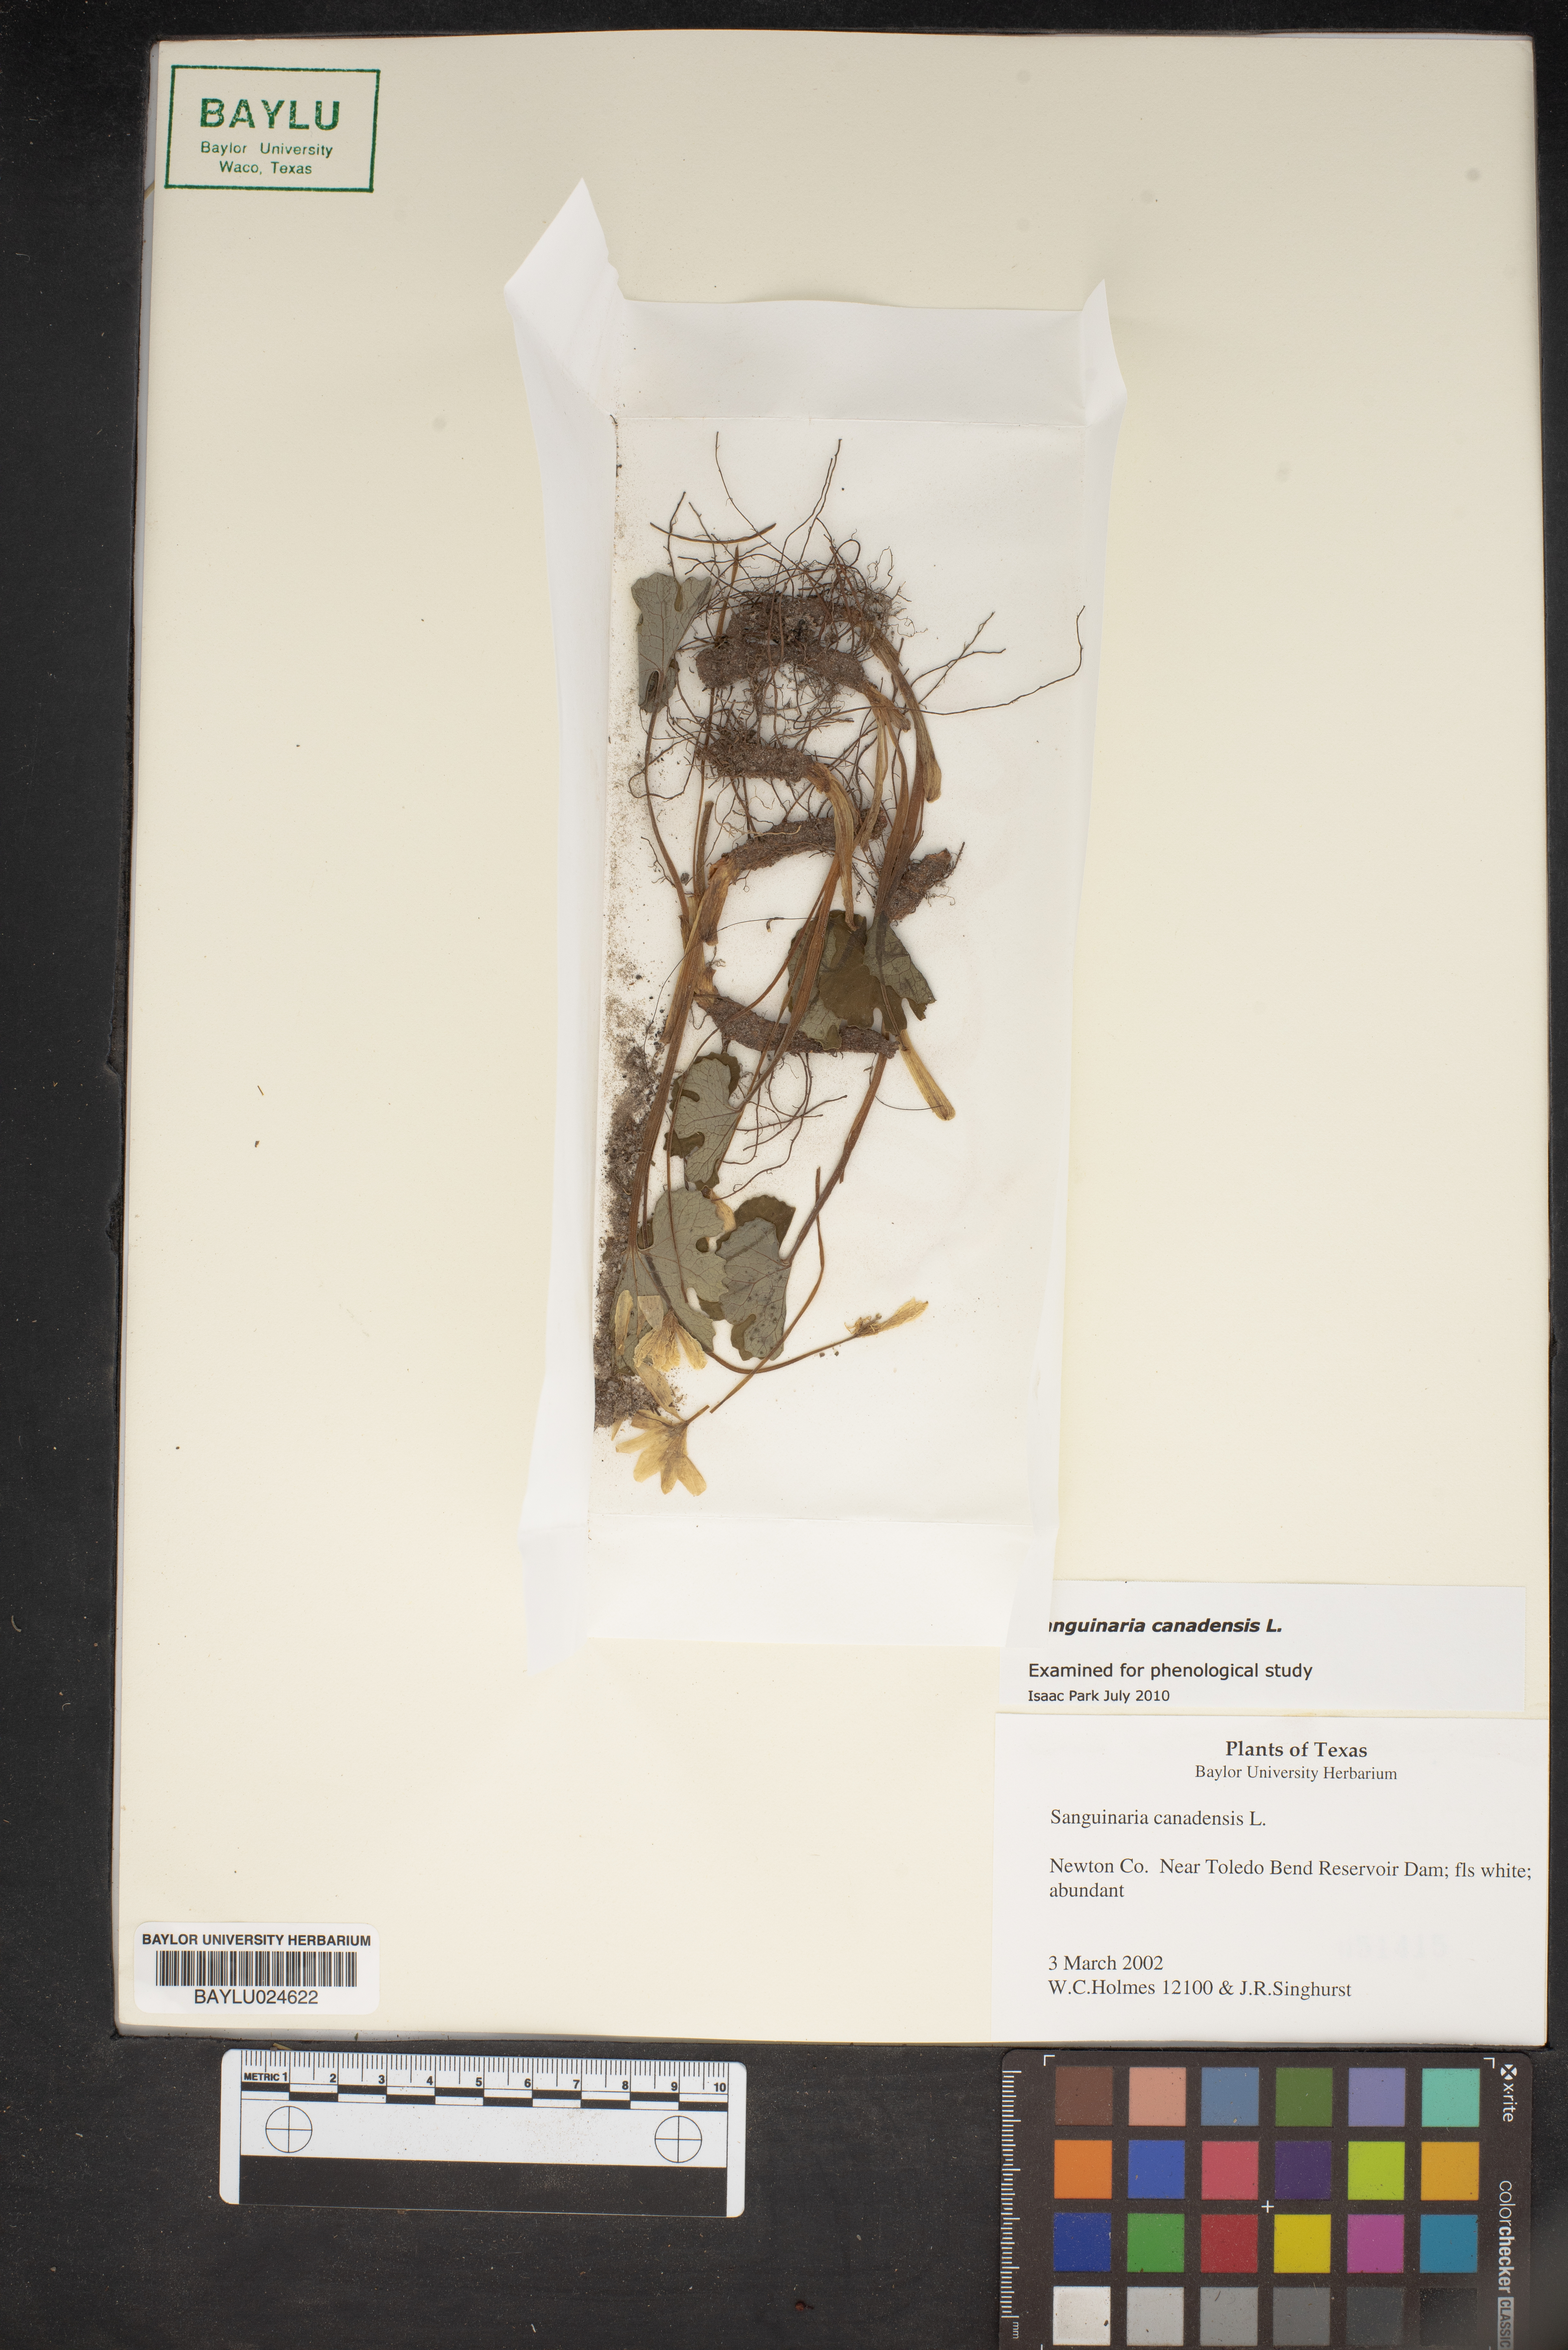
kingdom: Plantae
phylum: Tracheophyta
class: Magnoliopsida
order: Ranunculales
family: Papaveraceae
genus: Sanguinaria
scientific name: Sanguinaria canadensis
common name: Bloodroot
